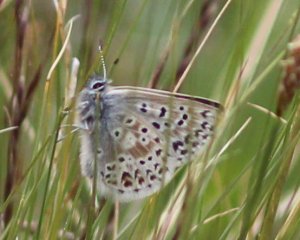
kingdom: Animalia
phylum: Arthropoda
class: Insecta
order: Lepidoptera
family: Lycaenidae
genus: Cupido
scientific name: Cupido podarce
